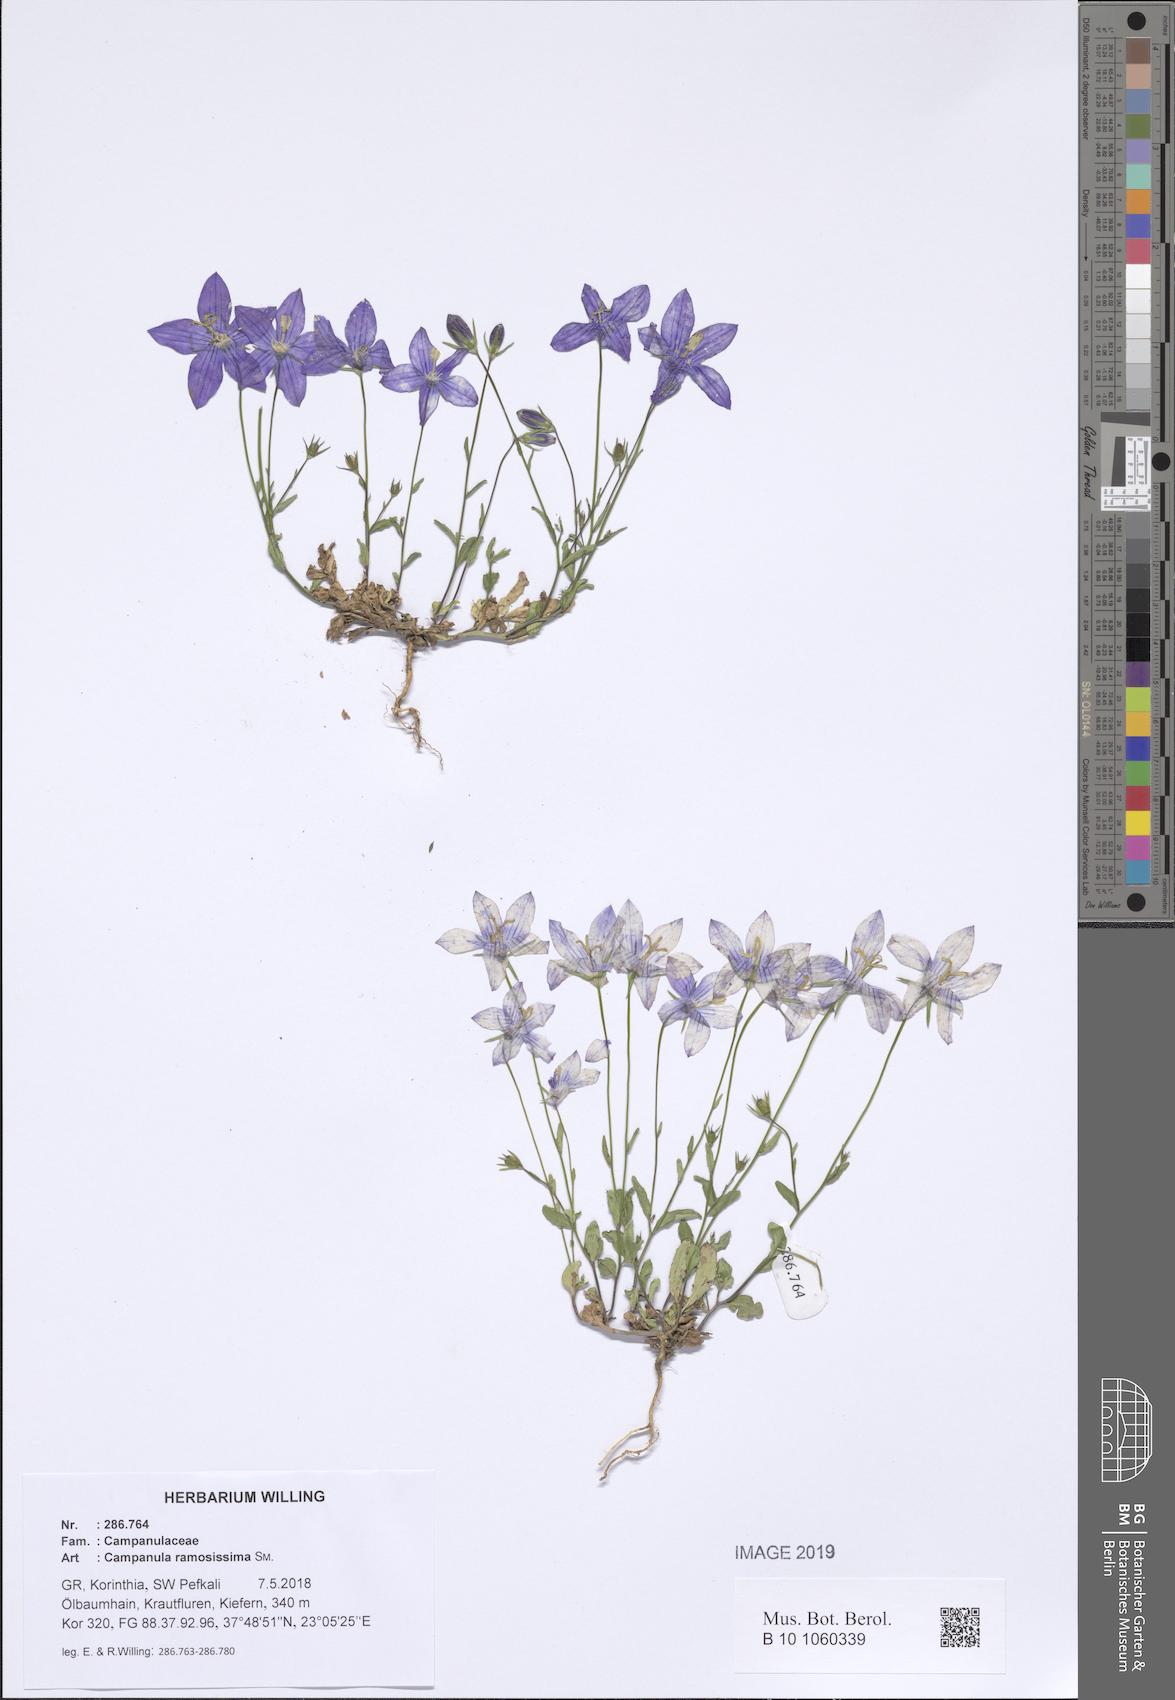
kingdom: Plantae
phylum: Tracheophyta
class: Magnoliopsida
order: Asterales
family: Campanulaceae
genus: Campanula
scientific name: Campanula ramosissima
